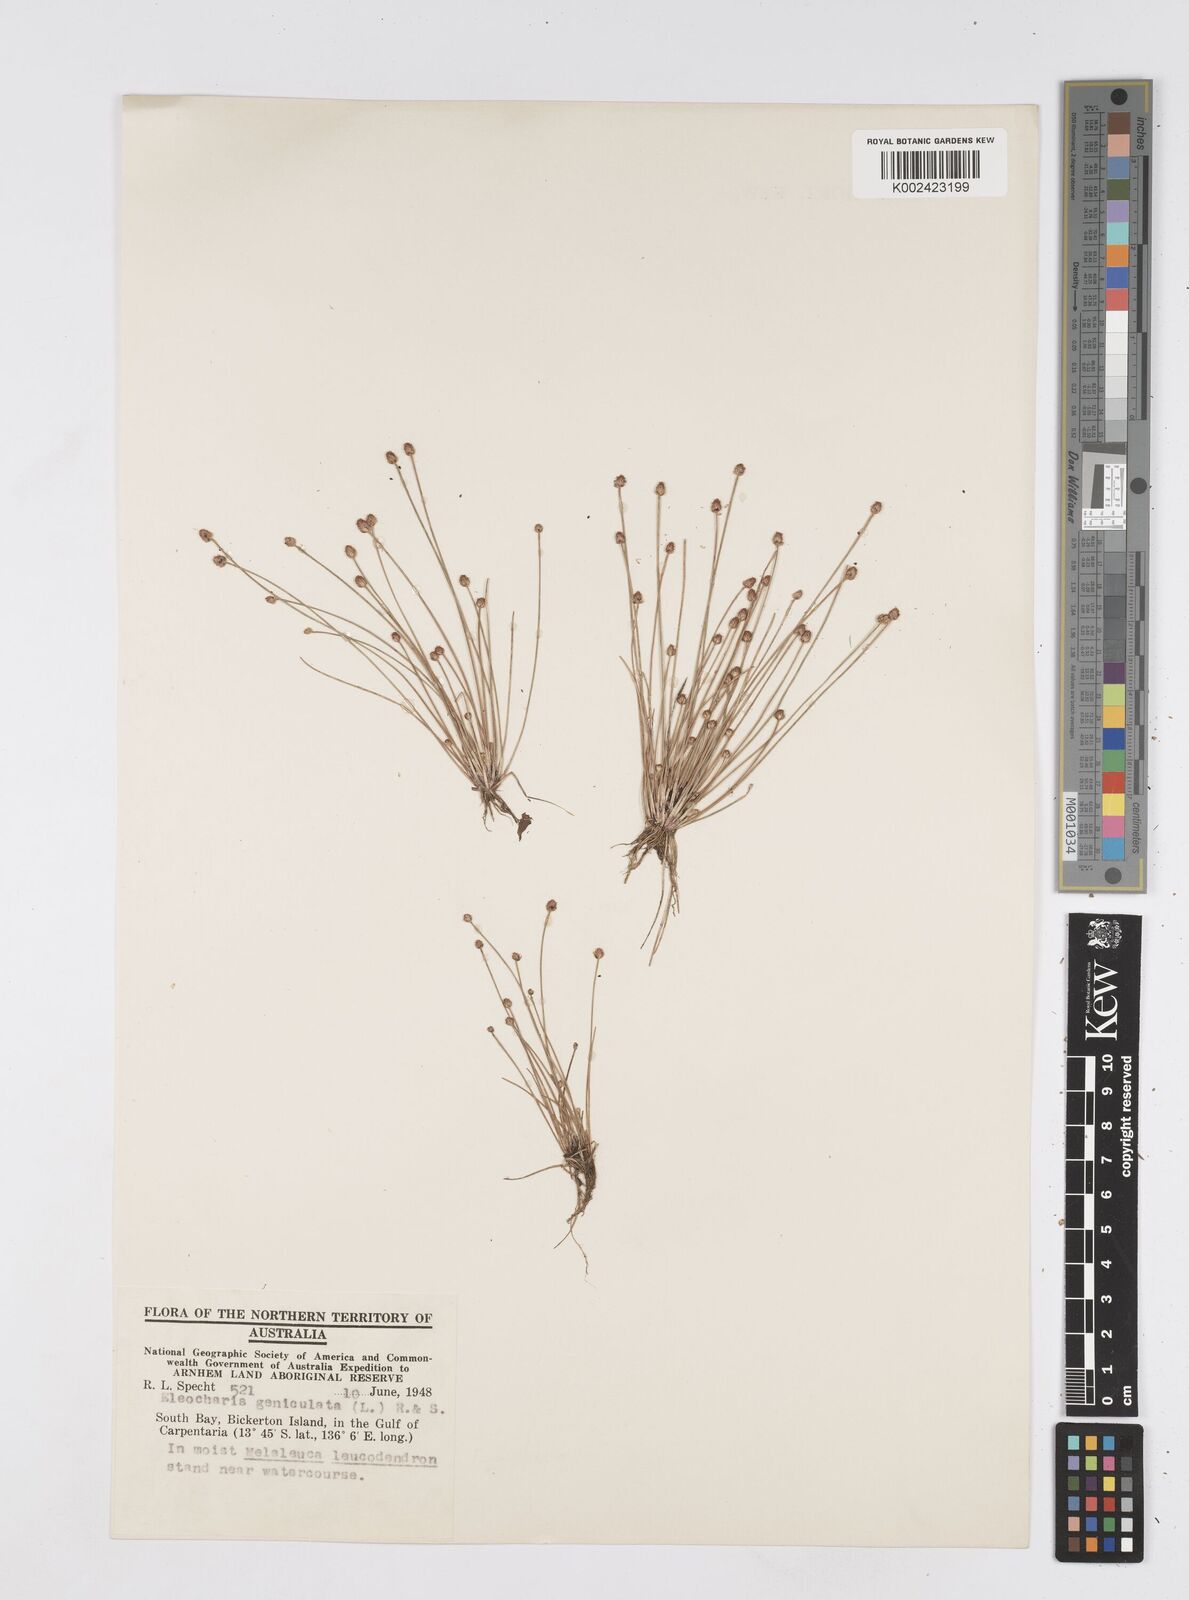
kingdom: Plantae
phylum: Tracheophyta
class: Liliopsida
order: Poales
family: Cyperaceae
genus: Eleocharis
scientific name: Eleocharis geniculata
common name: Canada spikesedge
